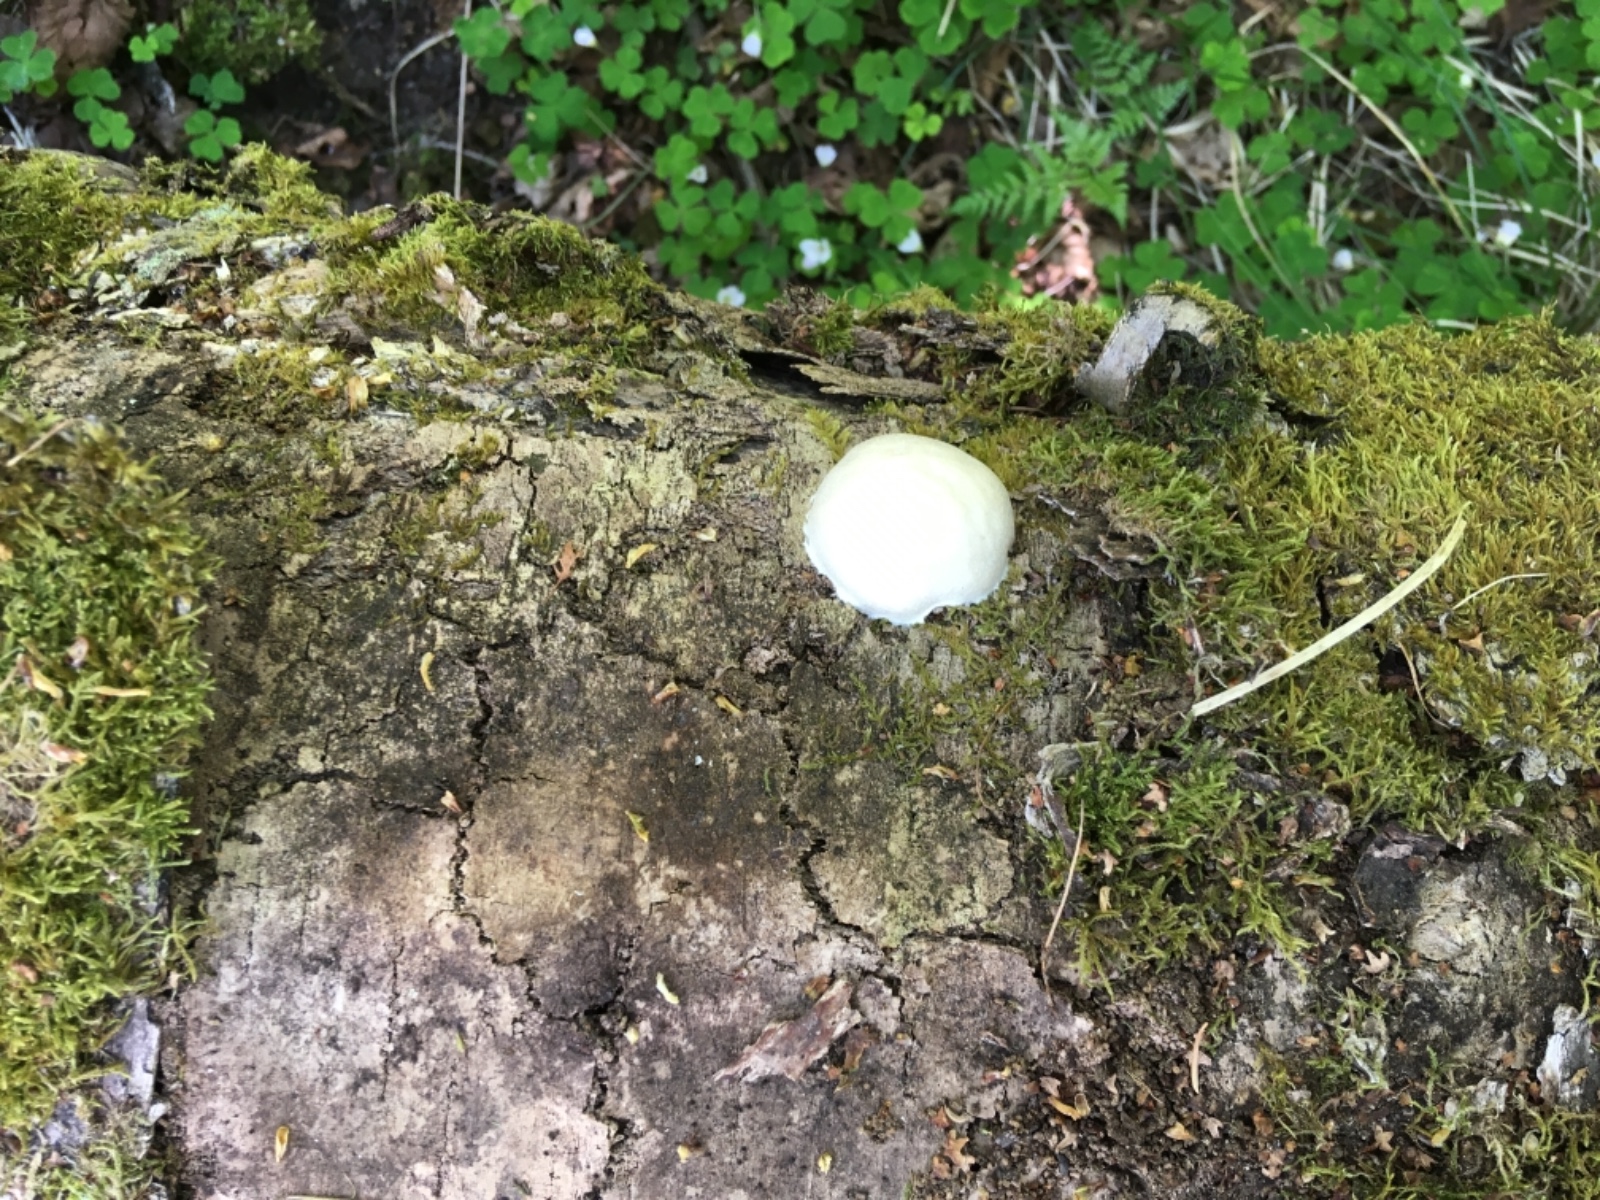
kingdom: Protozoa
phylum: Mycetozoa
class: Myxomycetes
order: Cribrariales
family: Tubiferaceae
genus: Reticularia
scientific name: Reticularia lycoperdon
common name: skinnende støvpude
